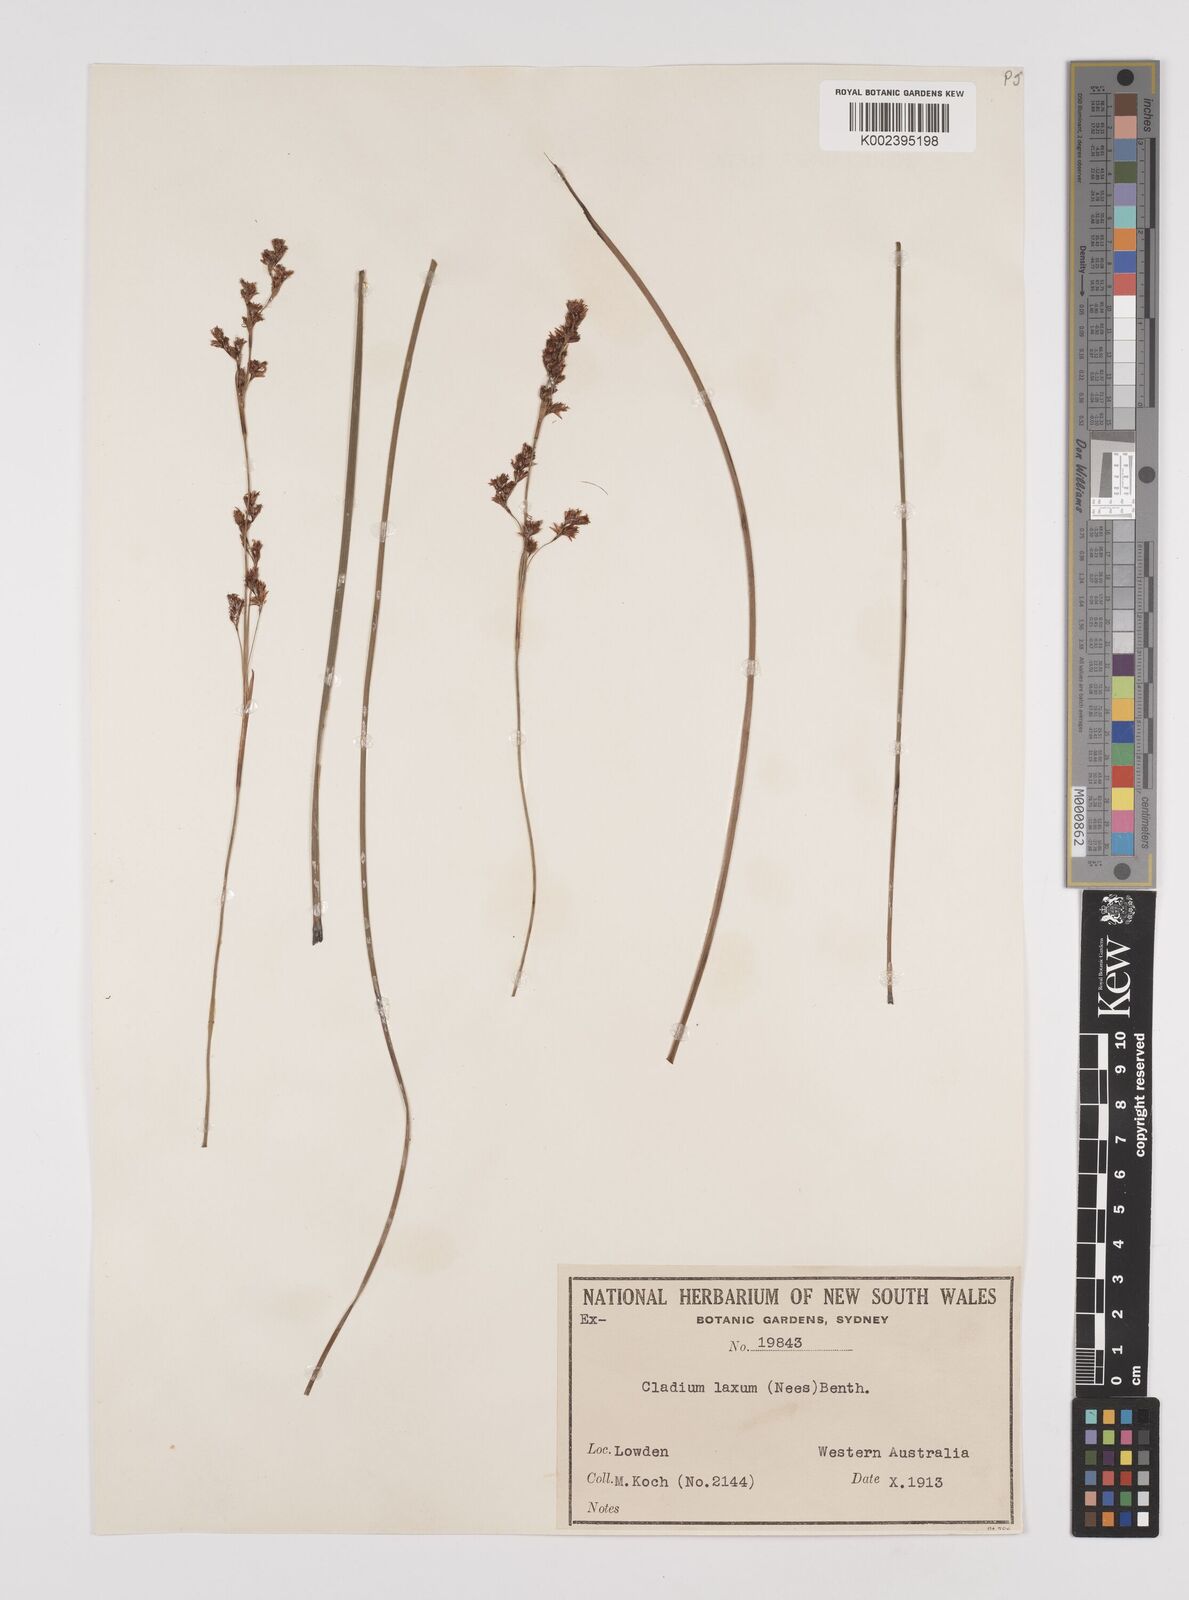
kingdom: Plantae
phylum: Tracheophyta
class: Liliopsida
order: Poales
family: Cyperaceae
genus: Machaerina
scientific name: Machaerina laxa
